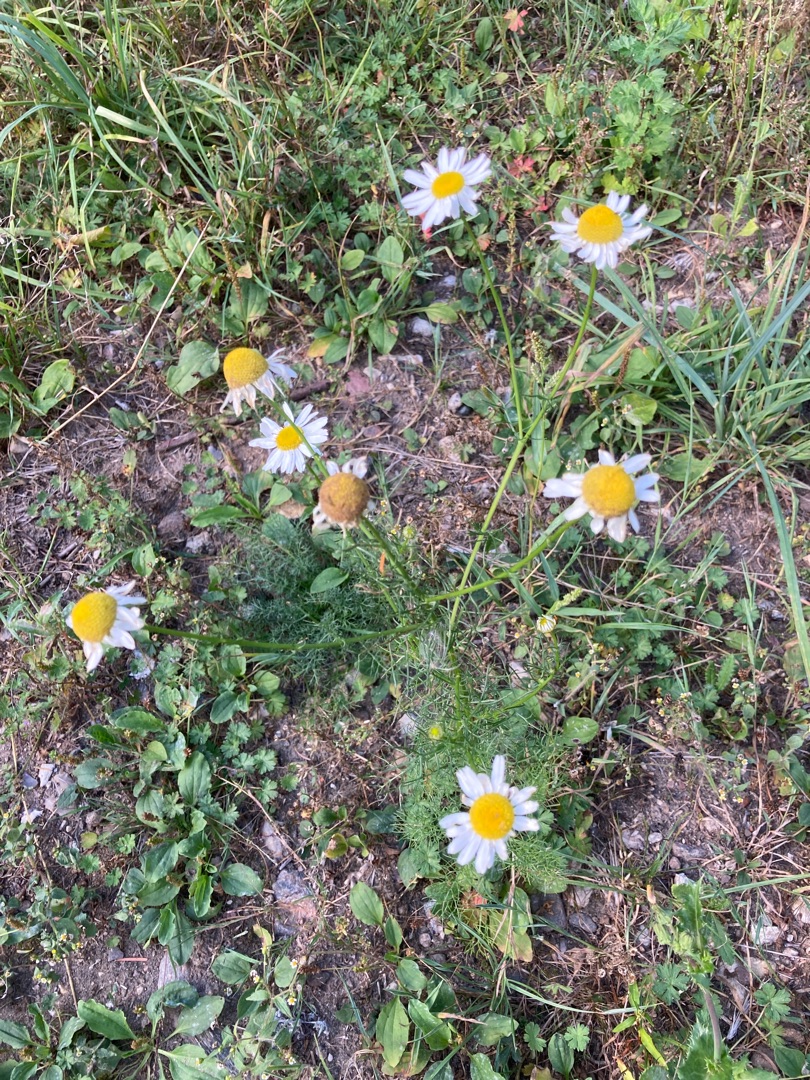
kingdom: Plantae
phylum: Tracheophyta
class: Magnoliopsida
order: Asterales
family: Asteraceae
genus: Tripleurospermum
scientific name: Tripleurospermum inodorum
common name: Lugtløs kamille
